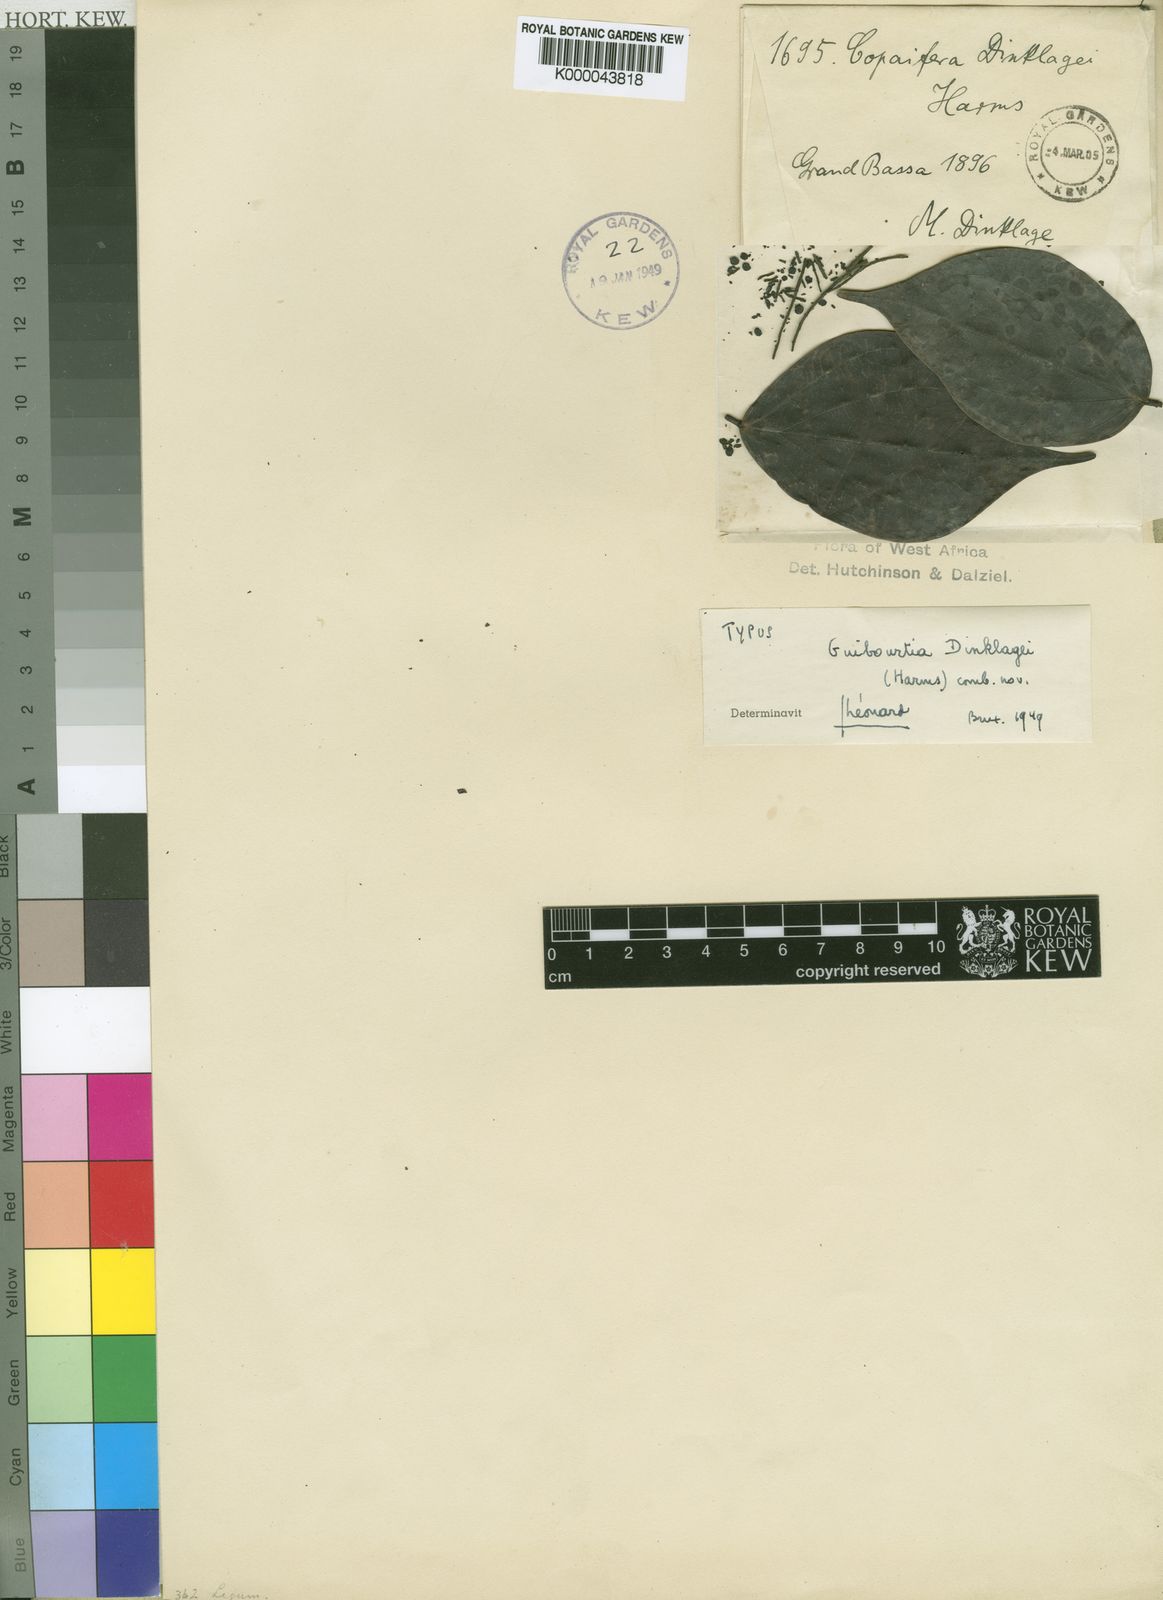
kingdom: Plantae
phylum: Tracheophyta
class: Magnoliopsida
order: Fabales
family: Fabaceae
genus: Guibourtia
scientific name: Guibourtia
